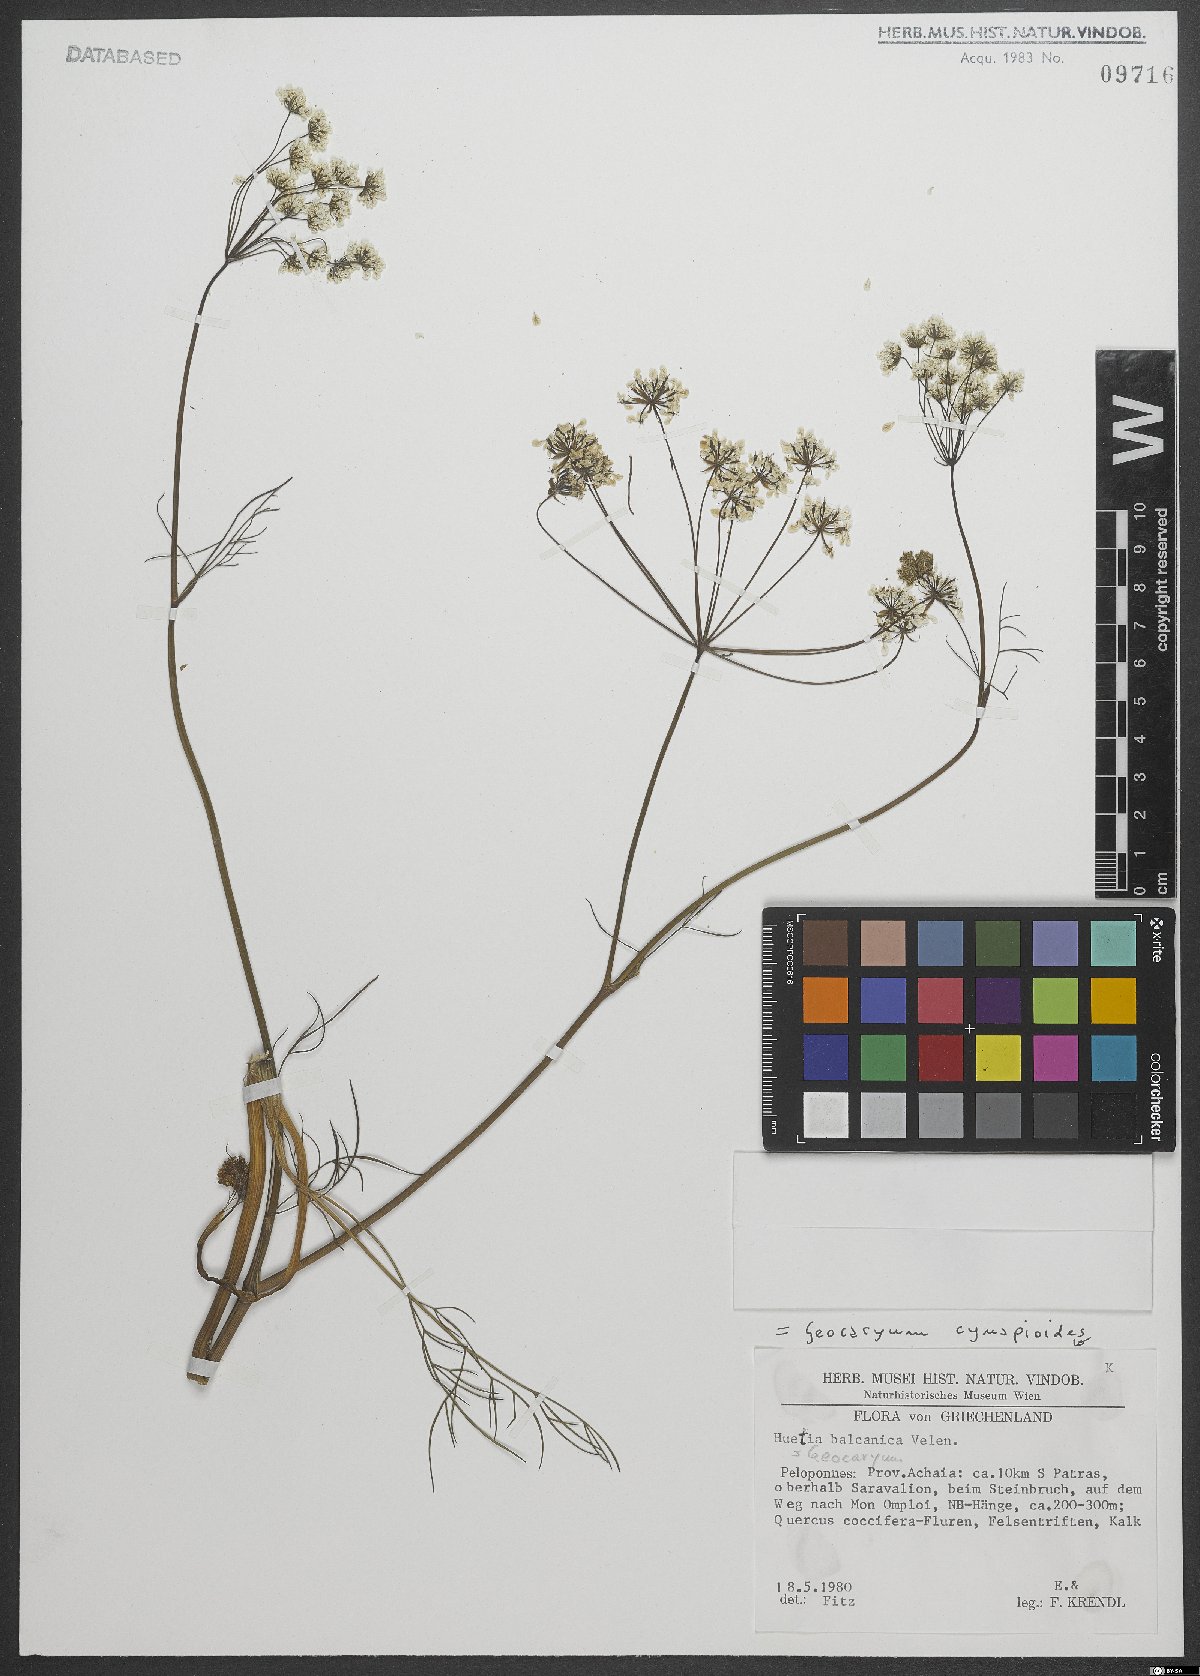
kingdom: Plantae
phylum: Tracheophyta
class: Magnoliopsida
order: Apiales
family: Apiaceae
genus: Geocaryum
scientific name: Geocaryum cynapioides
